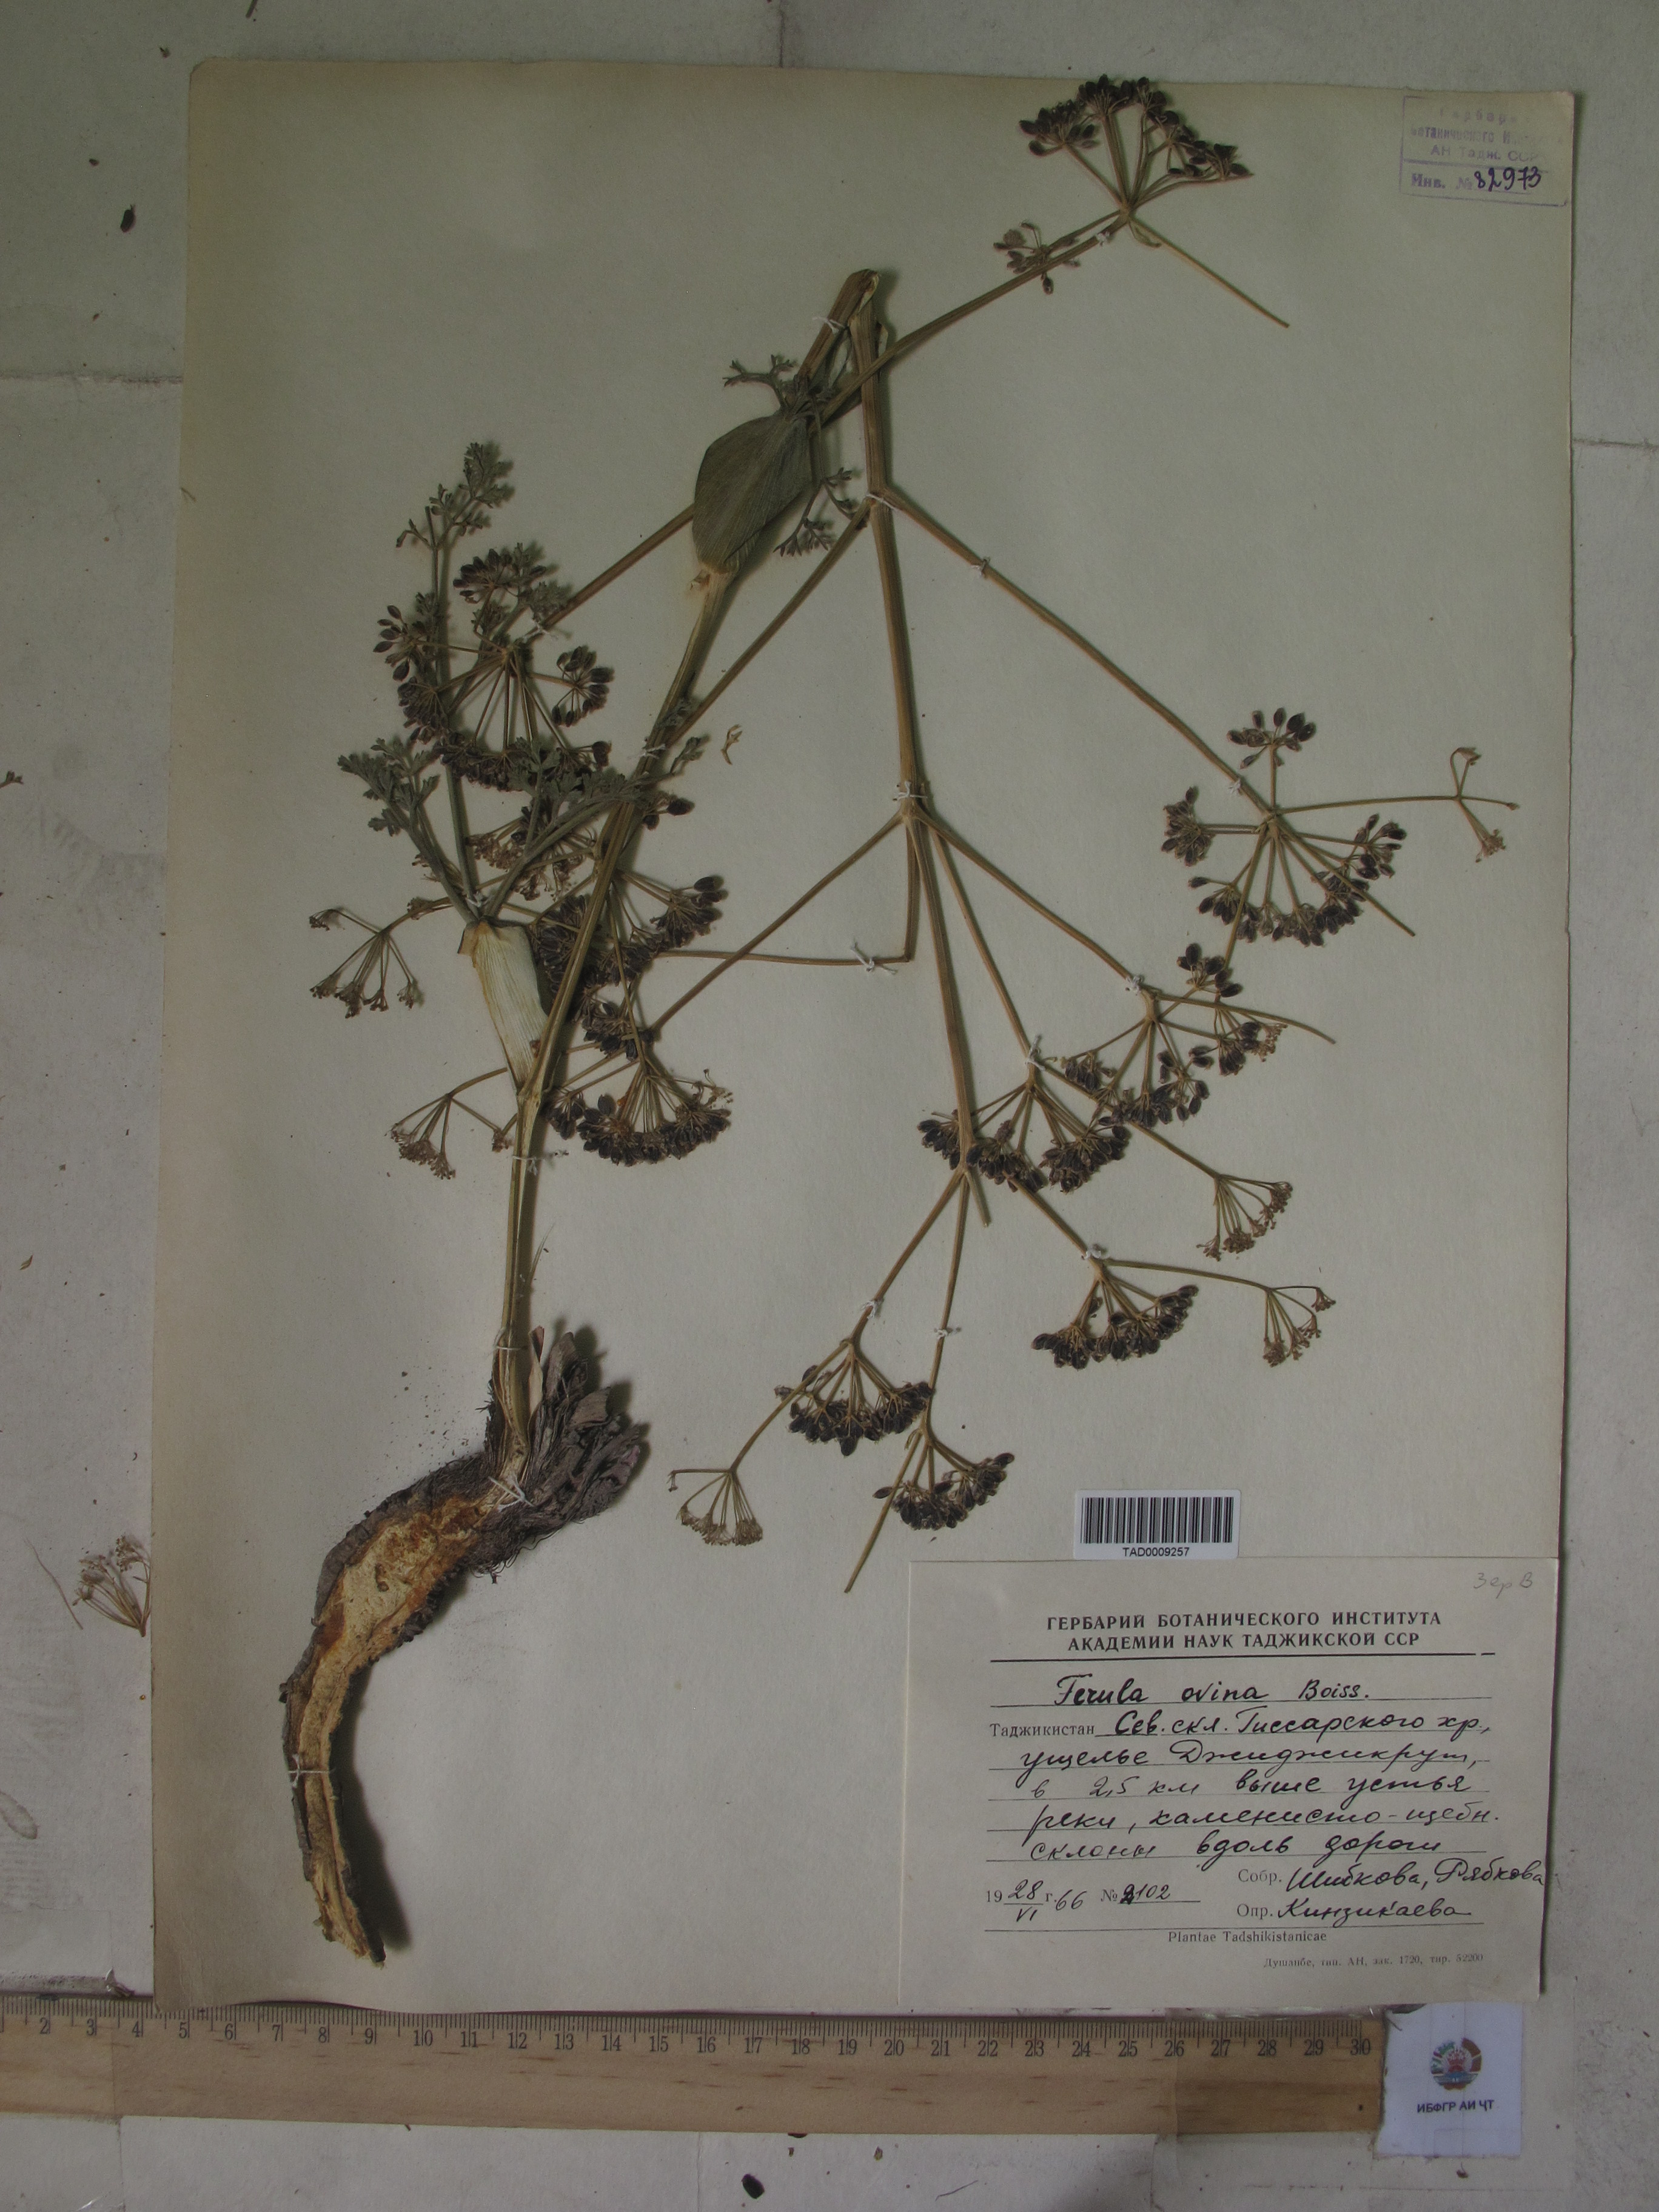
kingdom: Plantae
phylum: Tracheophyta
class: Magnoliopsida
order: Apiales
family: Apiaceae
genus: Ferula
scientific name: Ferula ovina
